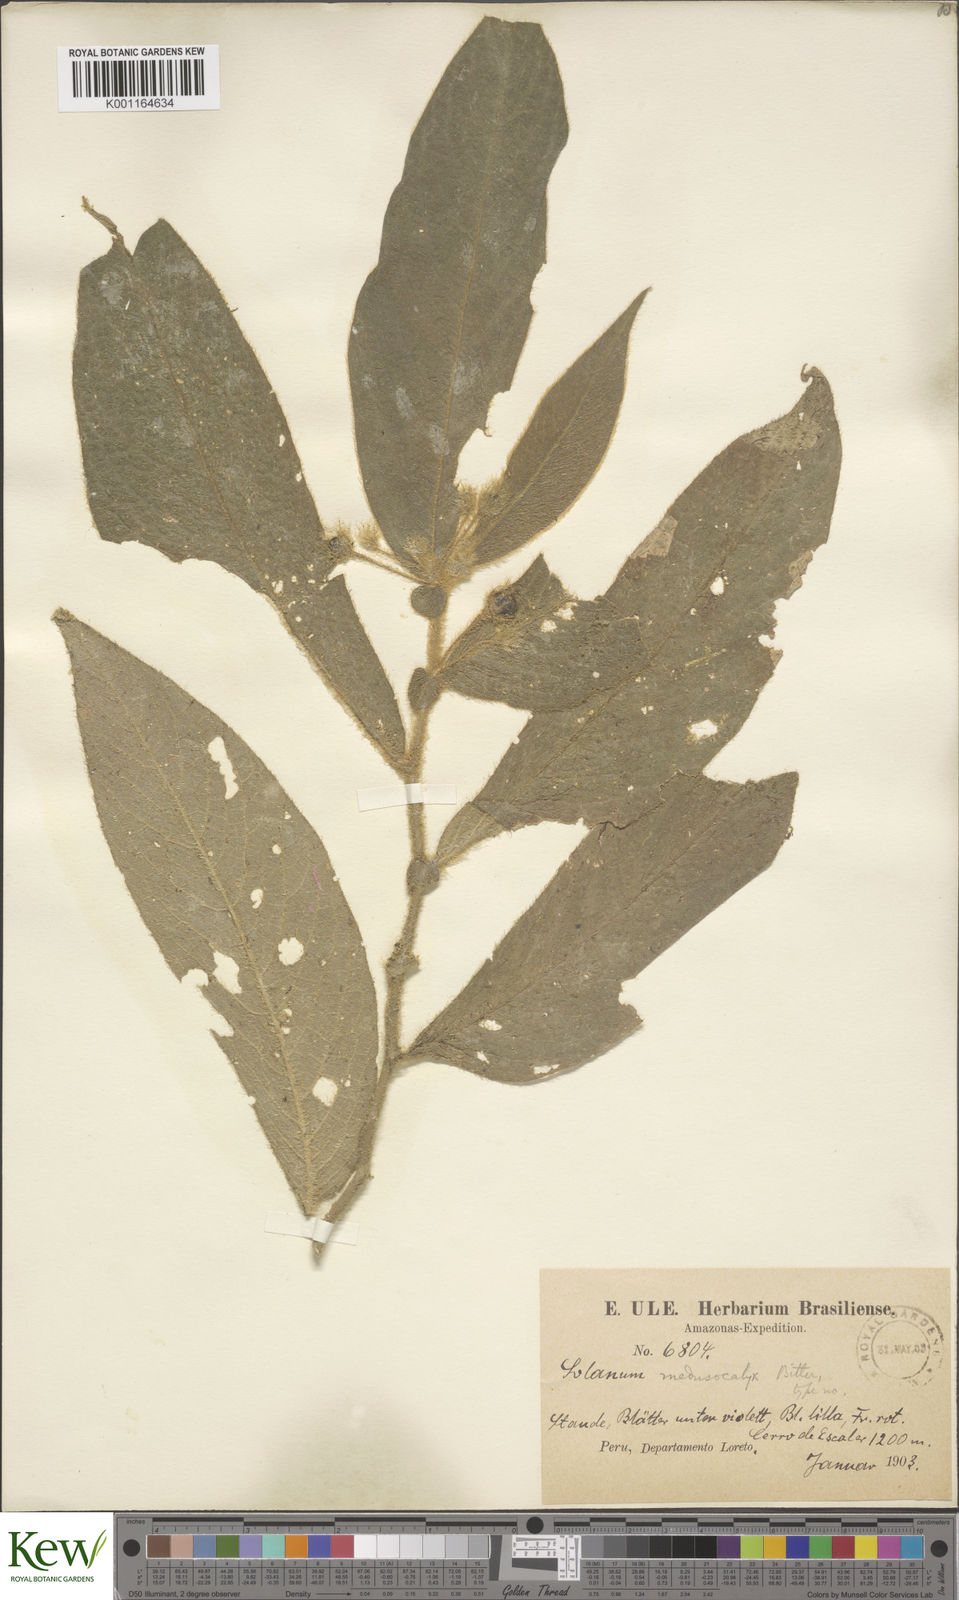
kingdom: Plantae
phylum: Tracheophyta
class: Magnoliopsida
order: Solanales
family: Solanaceae
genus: Lycianthes
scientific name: Lycianthes medusocalyx
